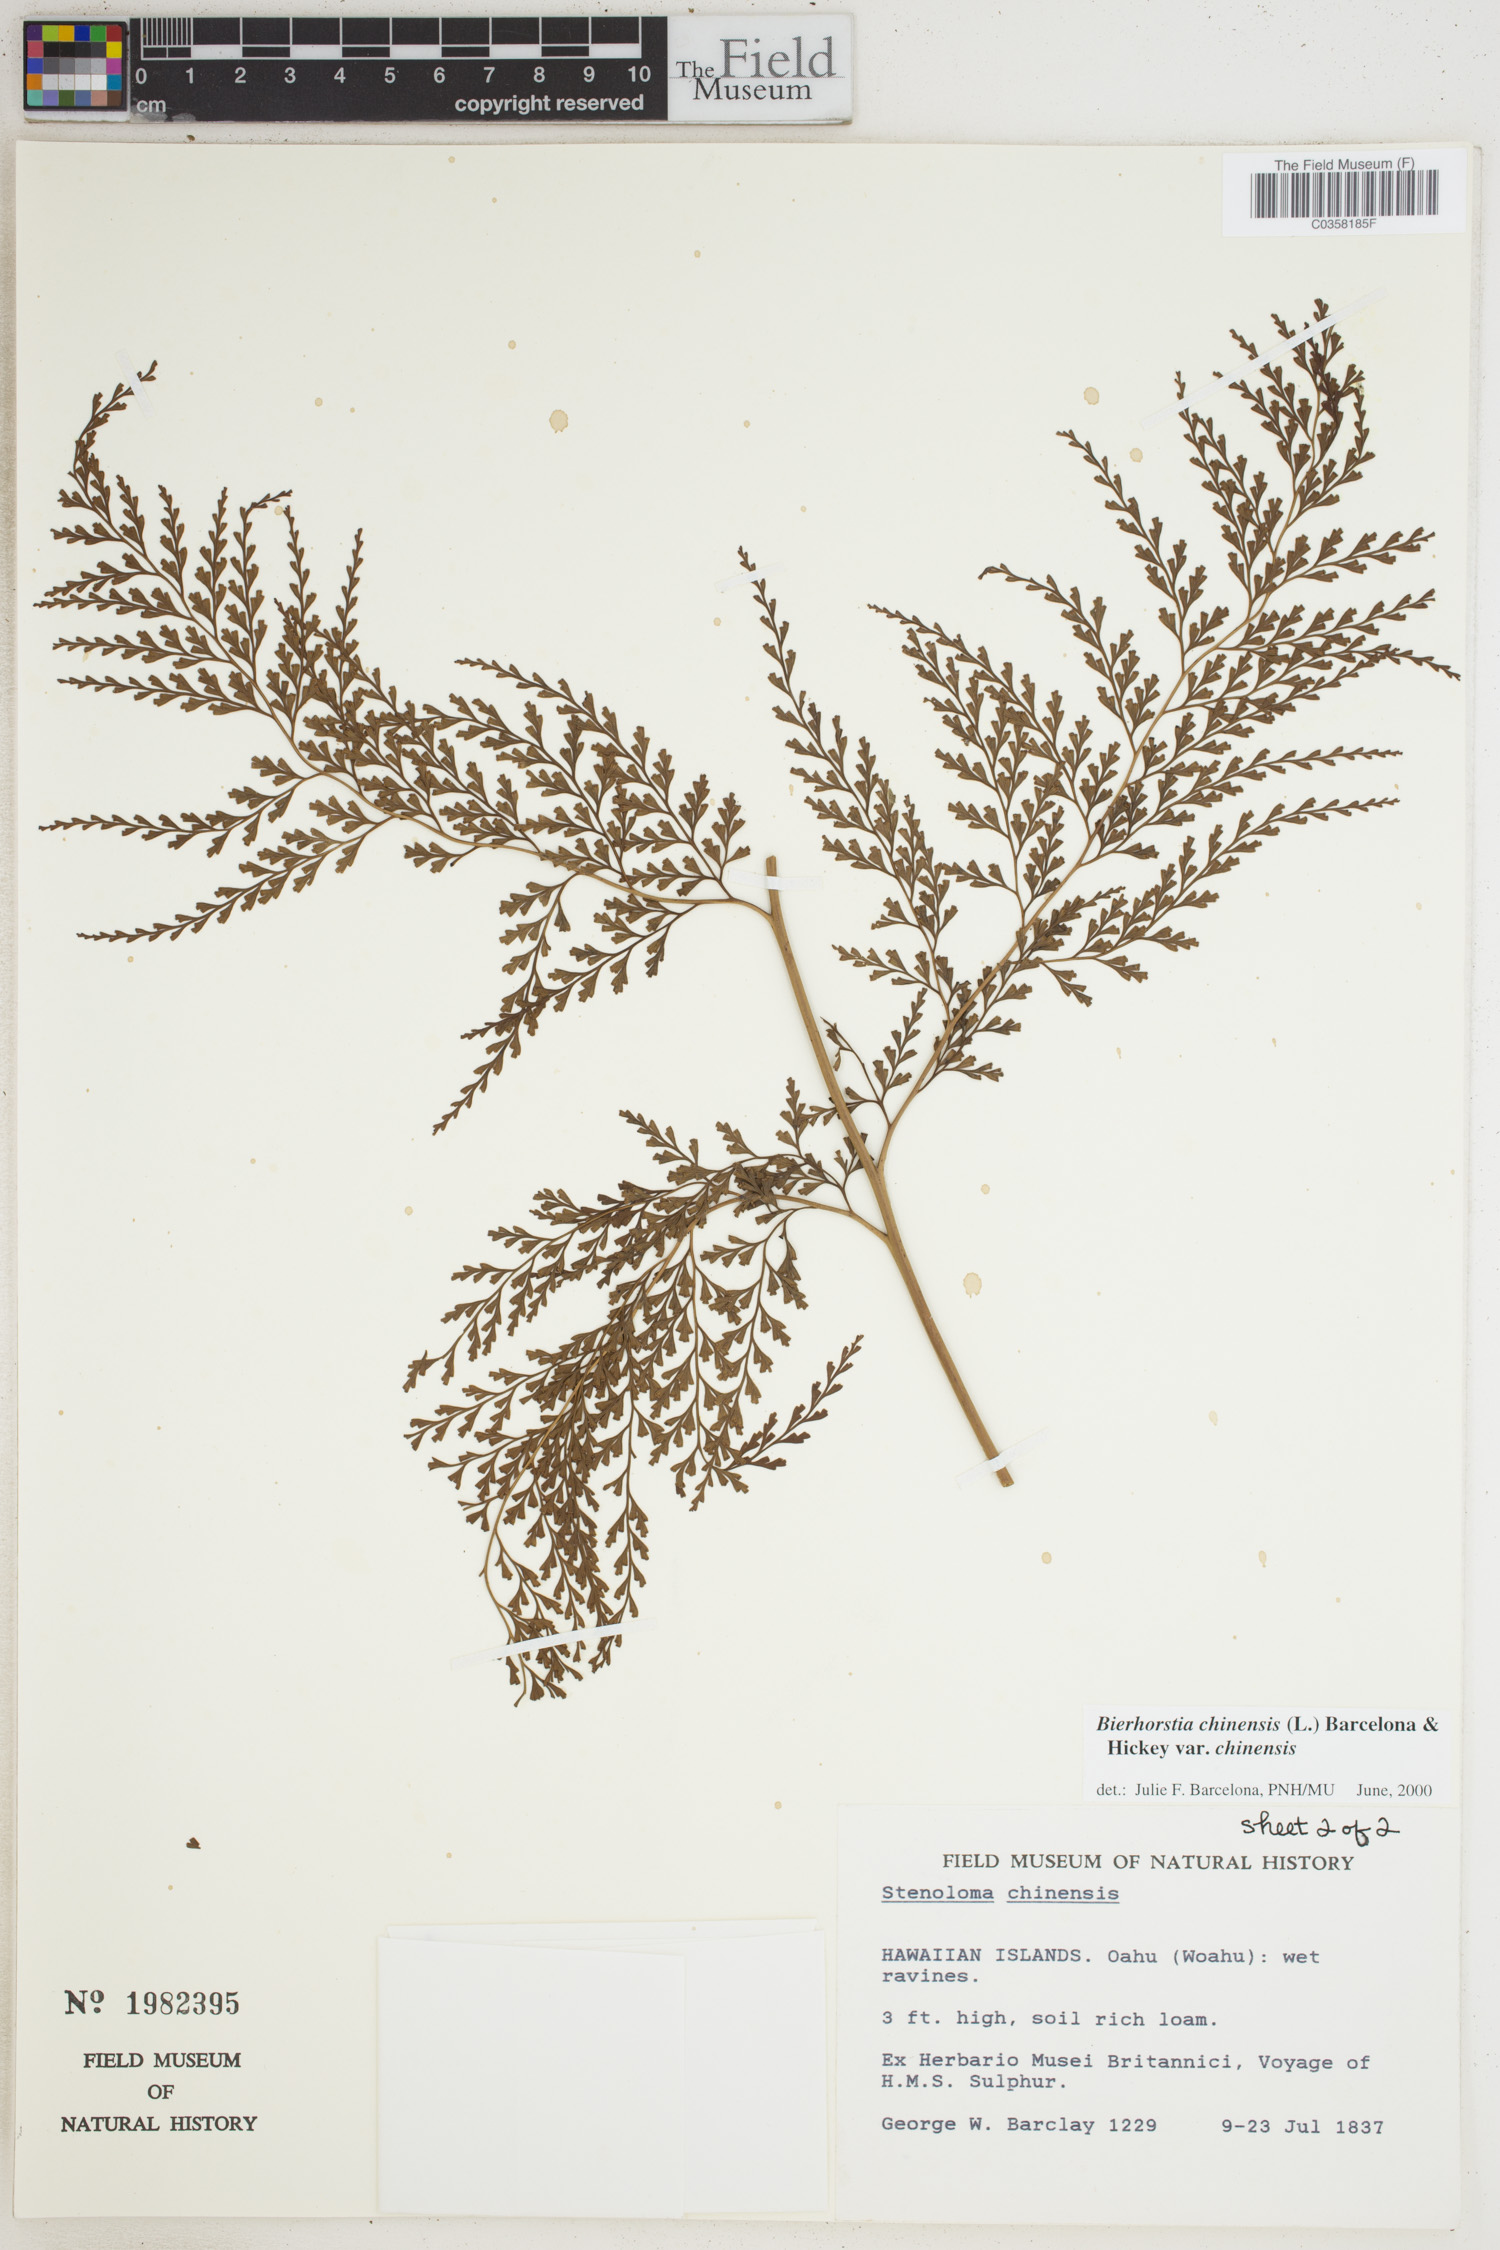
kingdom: Plantae
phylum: Tracheophyta
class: Polypodiopsida
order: Polypodiales
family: Lindsaeaceae
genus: Odontosoria
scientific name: Odontosoria chinensis
